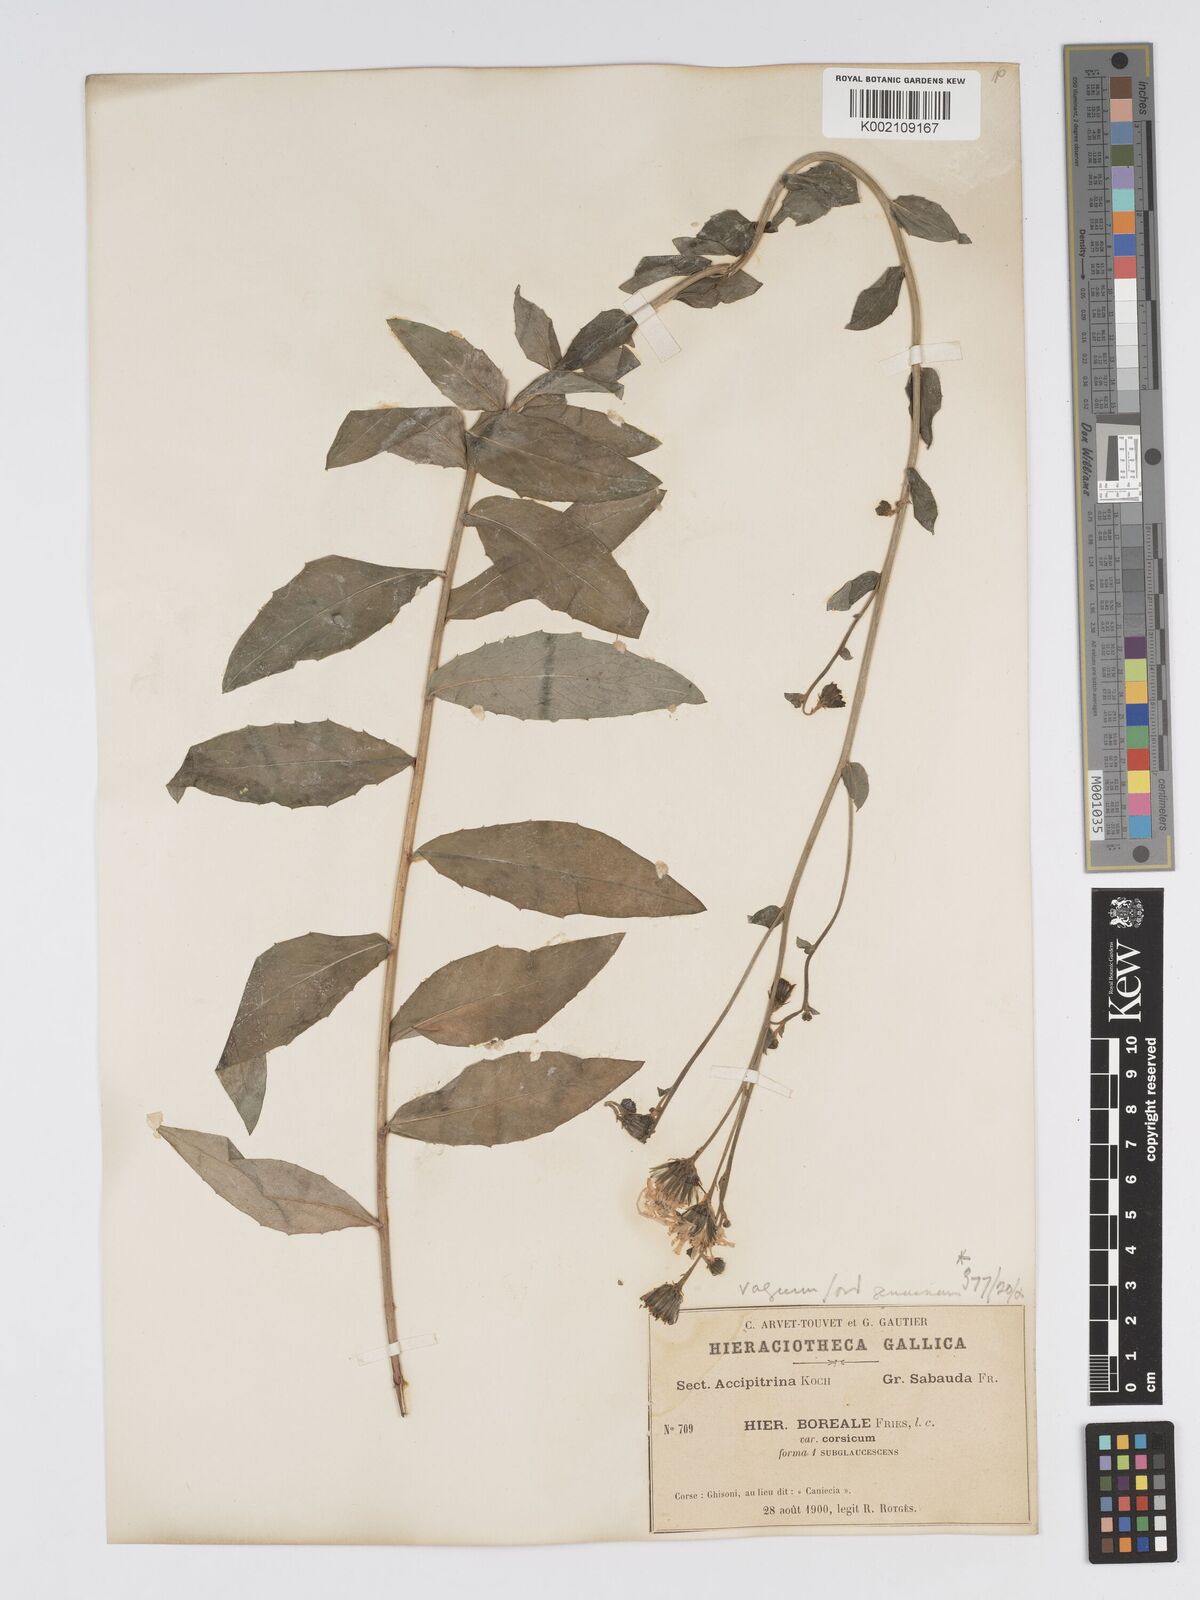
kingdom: Plantae
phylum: Tracheophyta
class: Magnoliopsida
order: Asterales
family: Asteraceae
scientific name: Asteraceae
